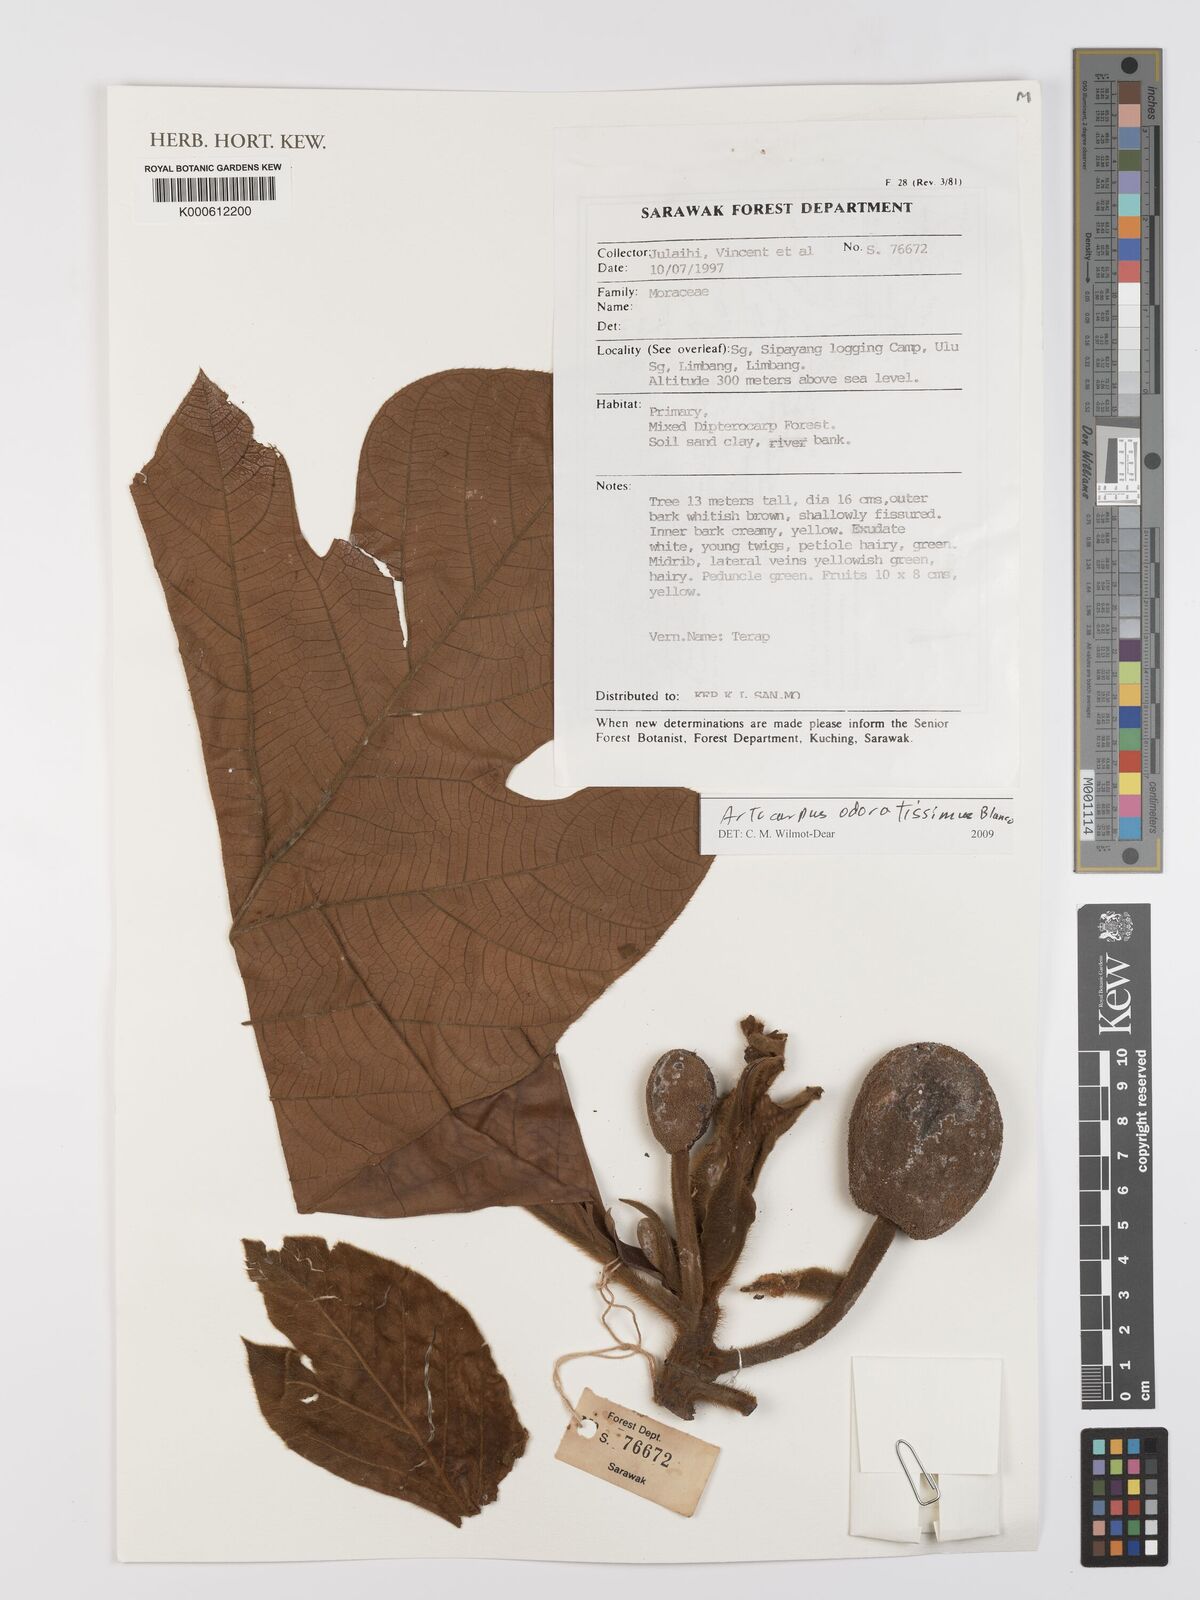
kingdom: Plantae
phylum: Tracheophyta
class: Magnoliopsida
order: Rosales
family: Moraceae
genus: Artocarpus
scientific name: Artocarpus odoratissimus
